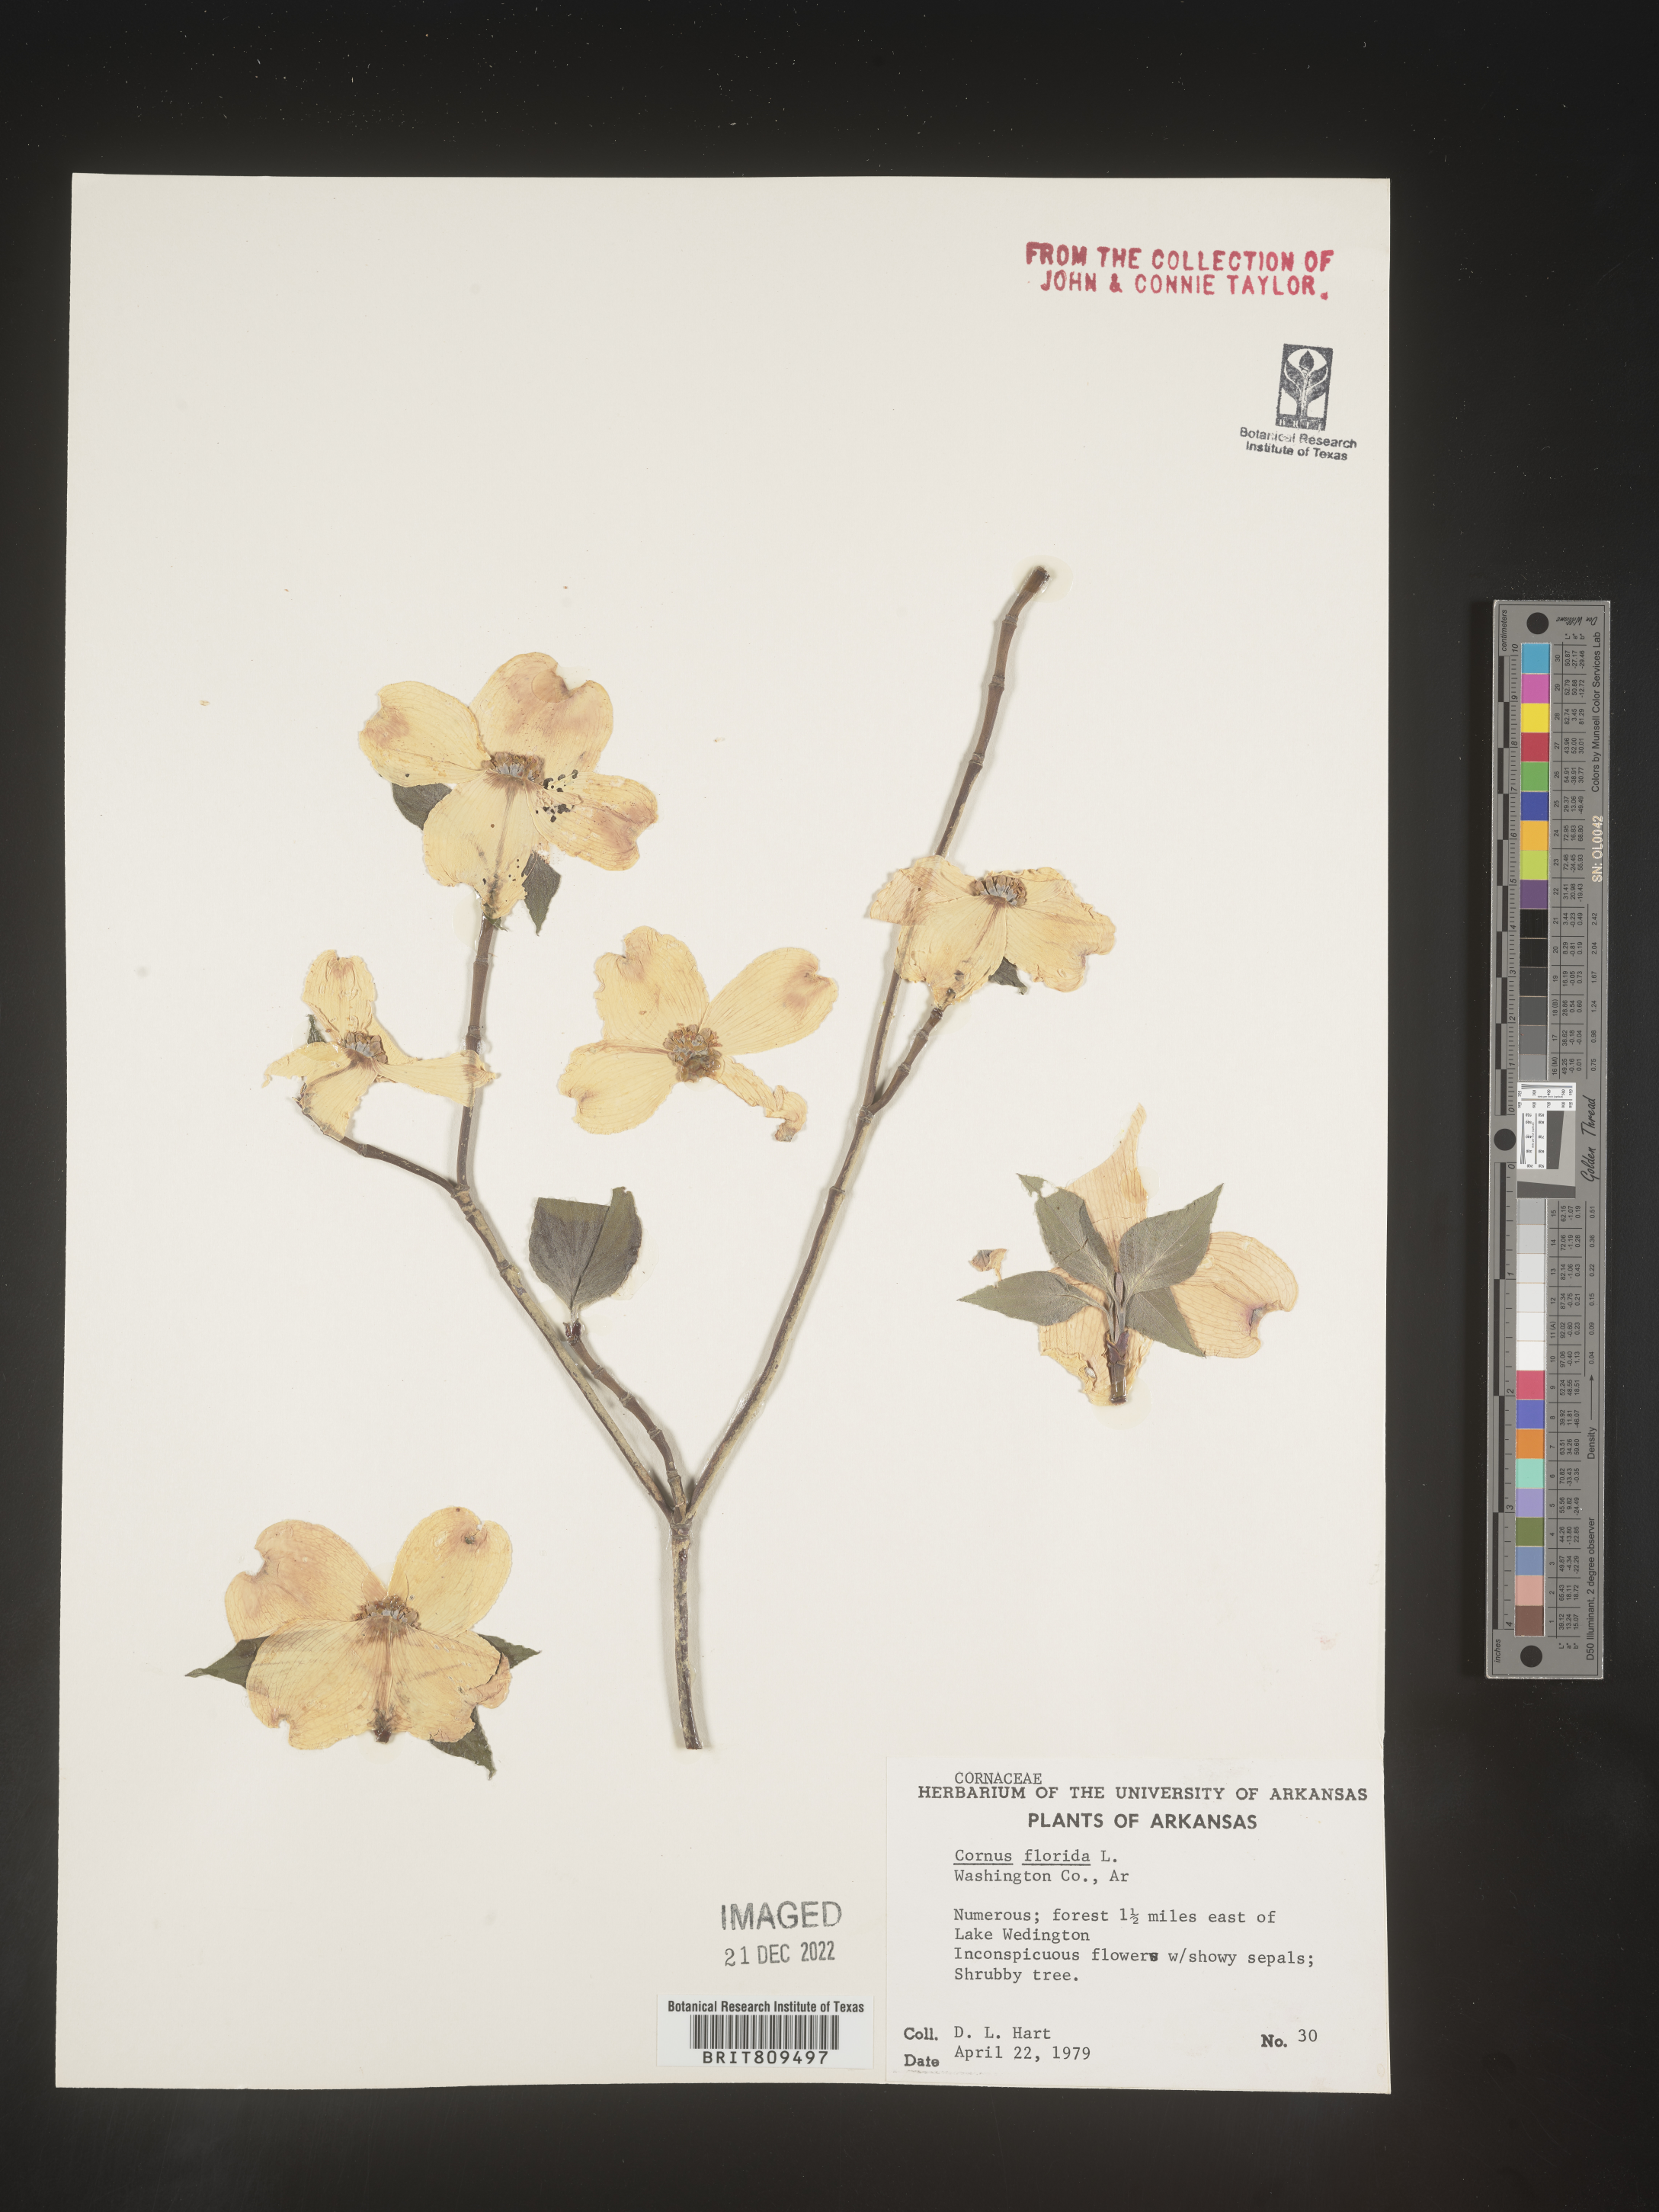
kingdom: Plantae
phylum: Tracheophyta
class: Magnoliopsida
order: Cornales
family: Cornaceae
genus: Cornus
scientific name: Cornus florida
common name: Flowering dogwood
